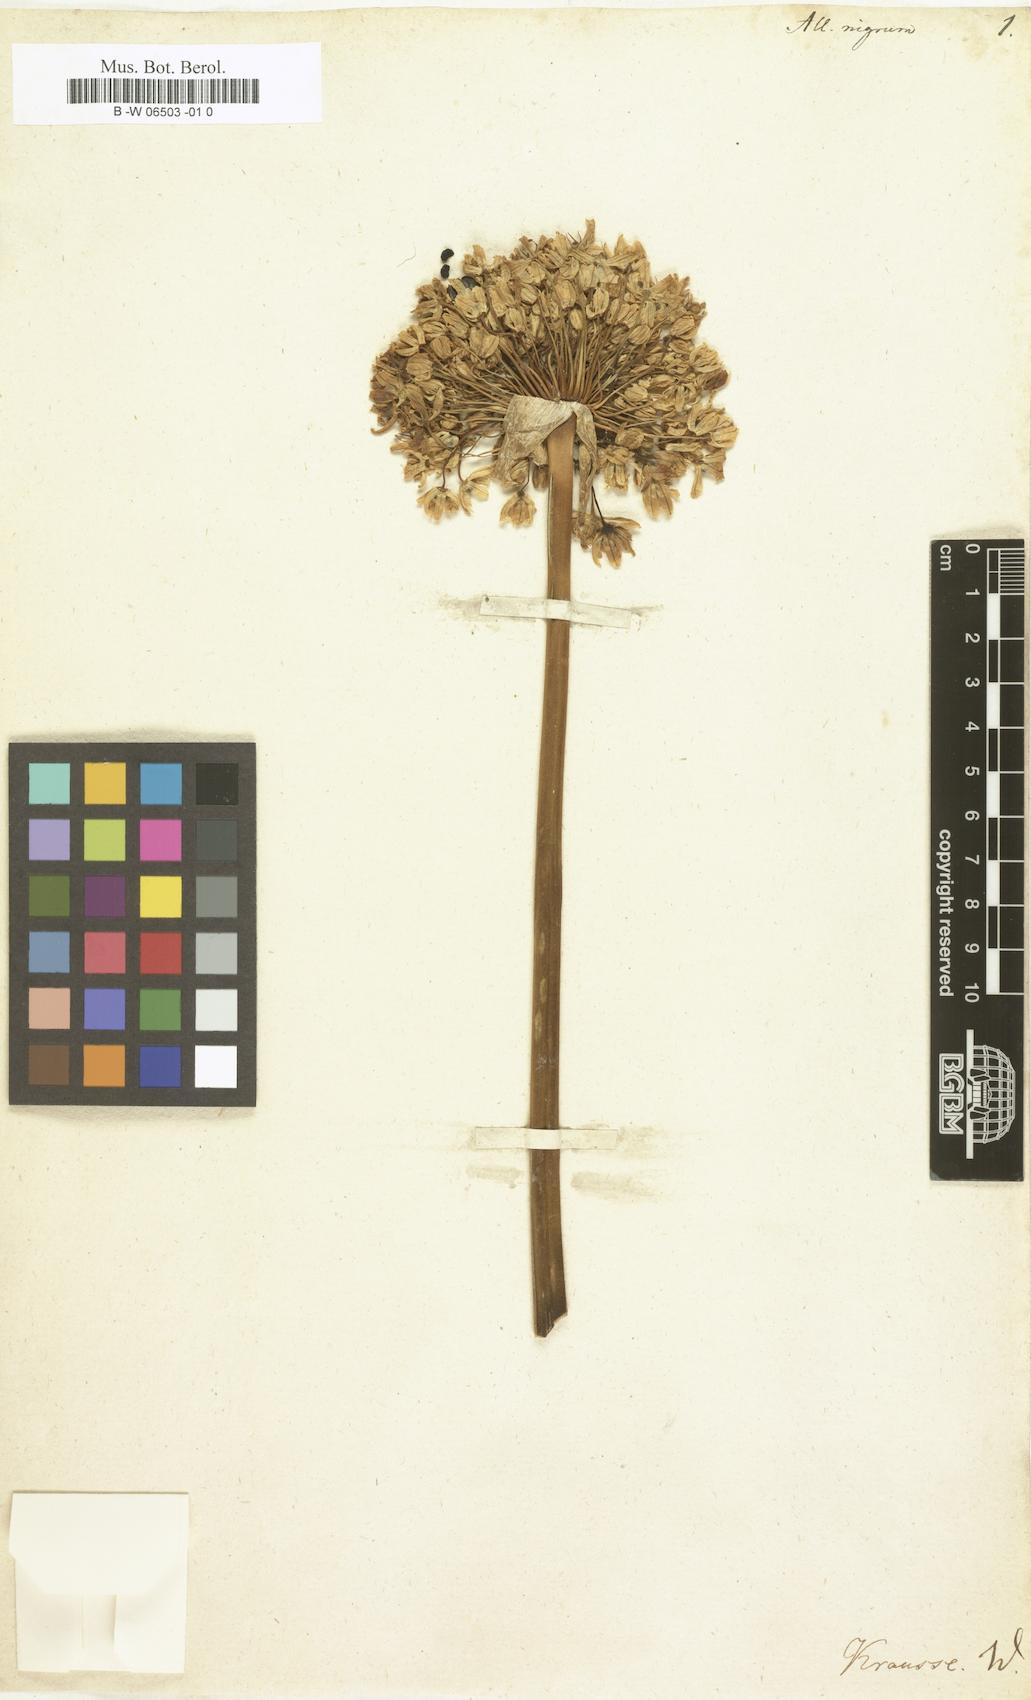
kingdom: Plantae
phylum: Tracheophyta
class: Liliopsida
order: Asparagales
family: Amaryllidaceae
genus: Allium
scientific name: Allium nigrum
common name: Black garlic
